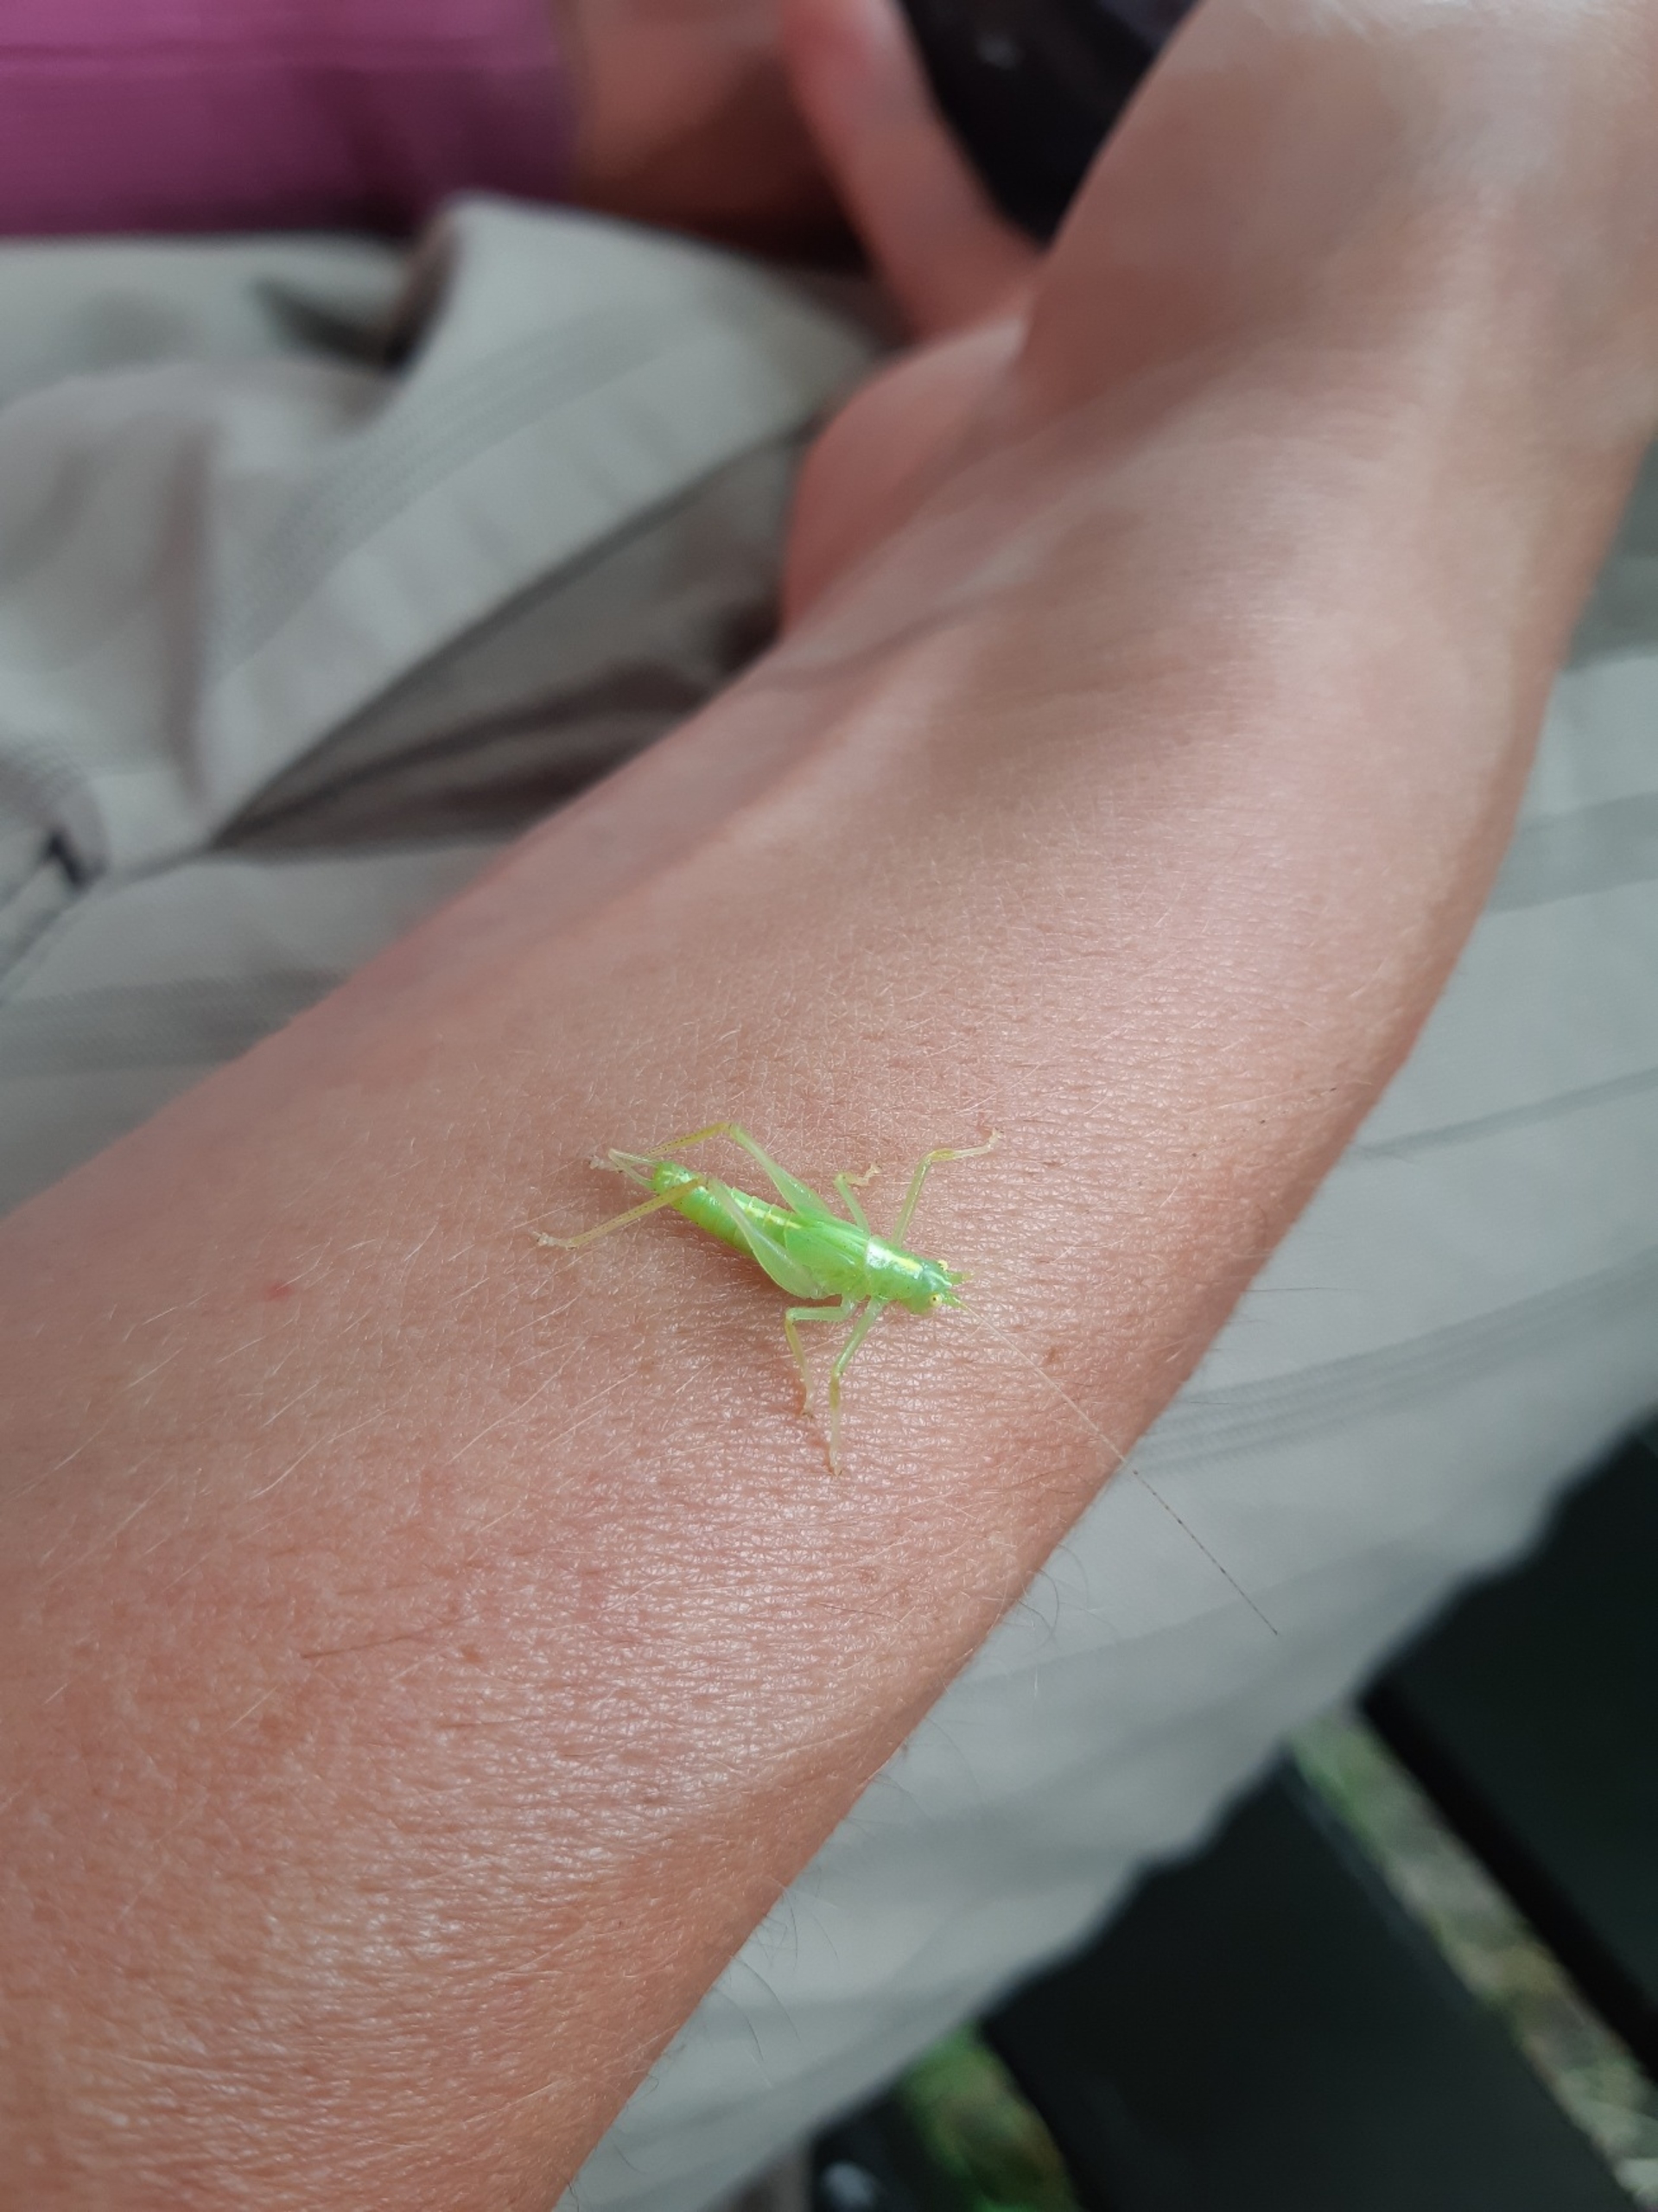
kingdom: Animalia
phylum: Arthropoda
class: Insecta
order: Orthoptera
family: Tettigoniidae
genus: Meconema
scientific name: Meconema thalassinum
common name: Egegræshoppe
